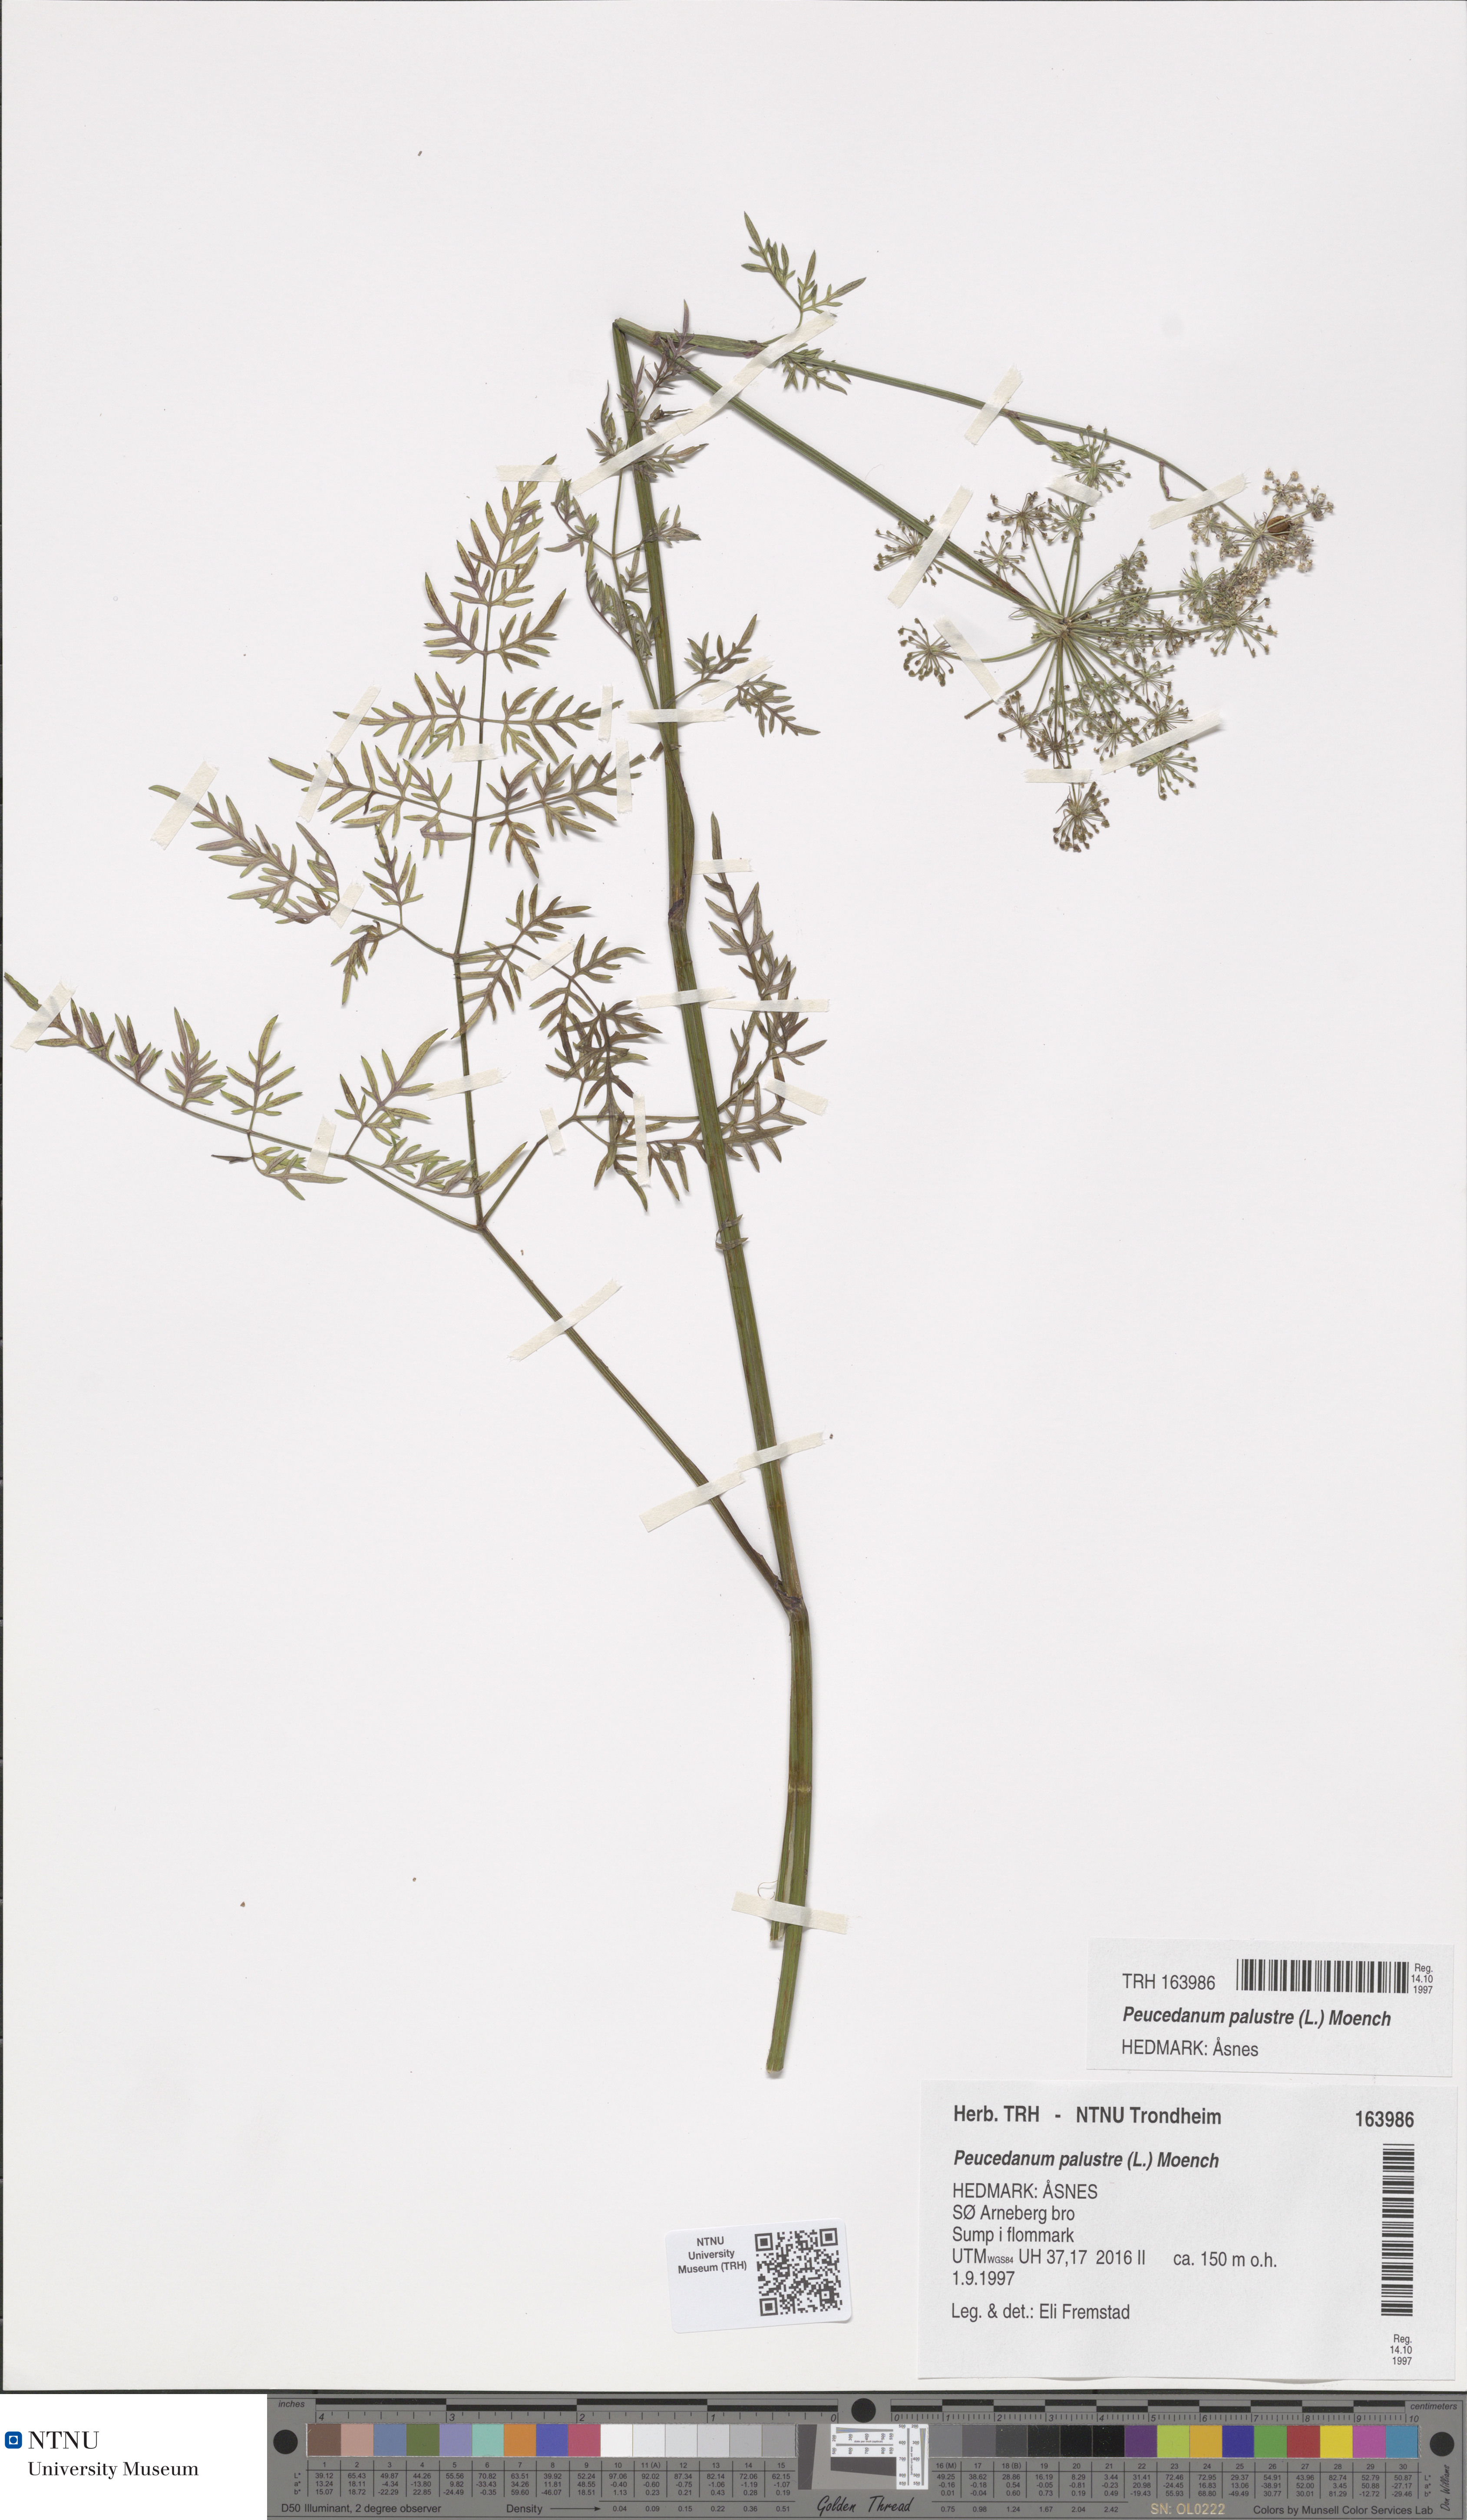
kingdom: Plantae
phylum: Tracheophyta
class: Magnoliopsida
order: Apiales
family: Apiaceae
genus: Thysselinum
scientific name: Thysselinum palustre
